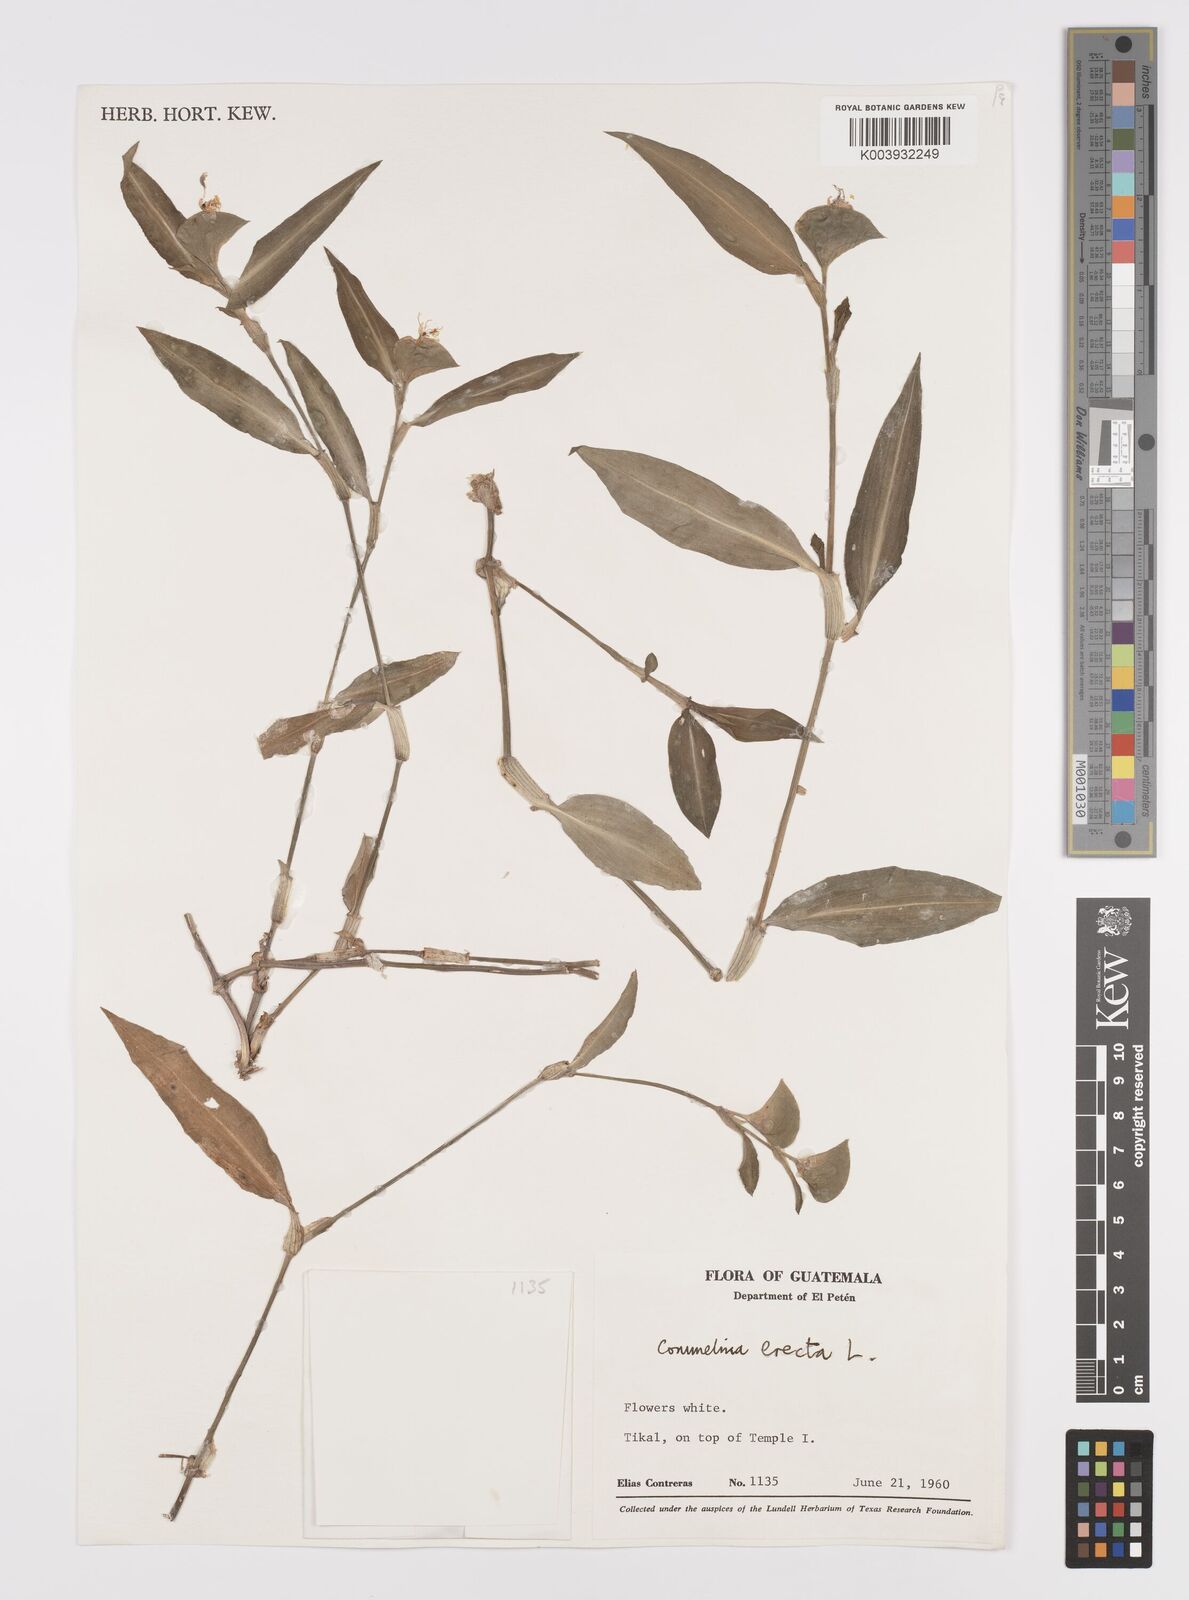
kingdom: Plantae
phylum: Tracheophyta
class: Liliopsida
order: Commelinales
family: Commelinaceae
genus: Commelina
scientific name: Commelina erecta
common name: Blousel blommetjie
